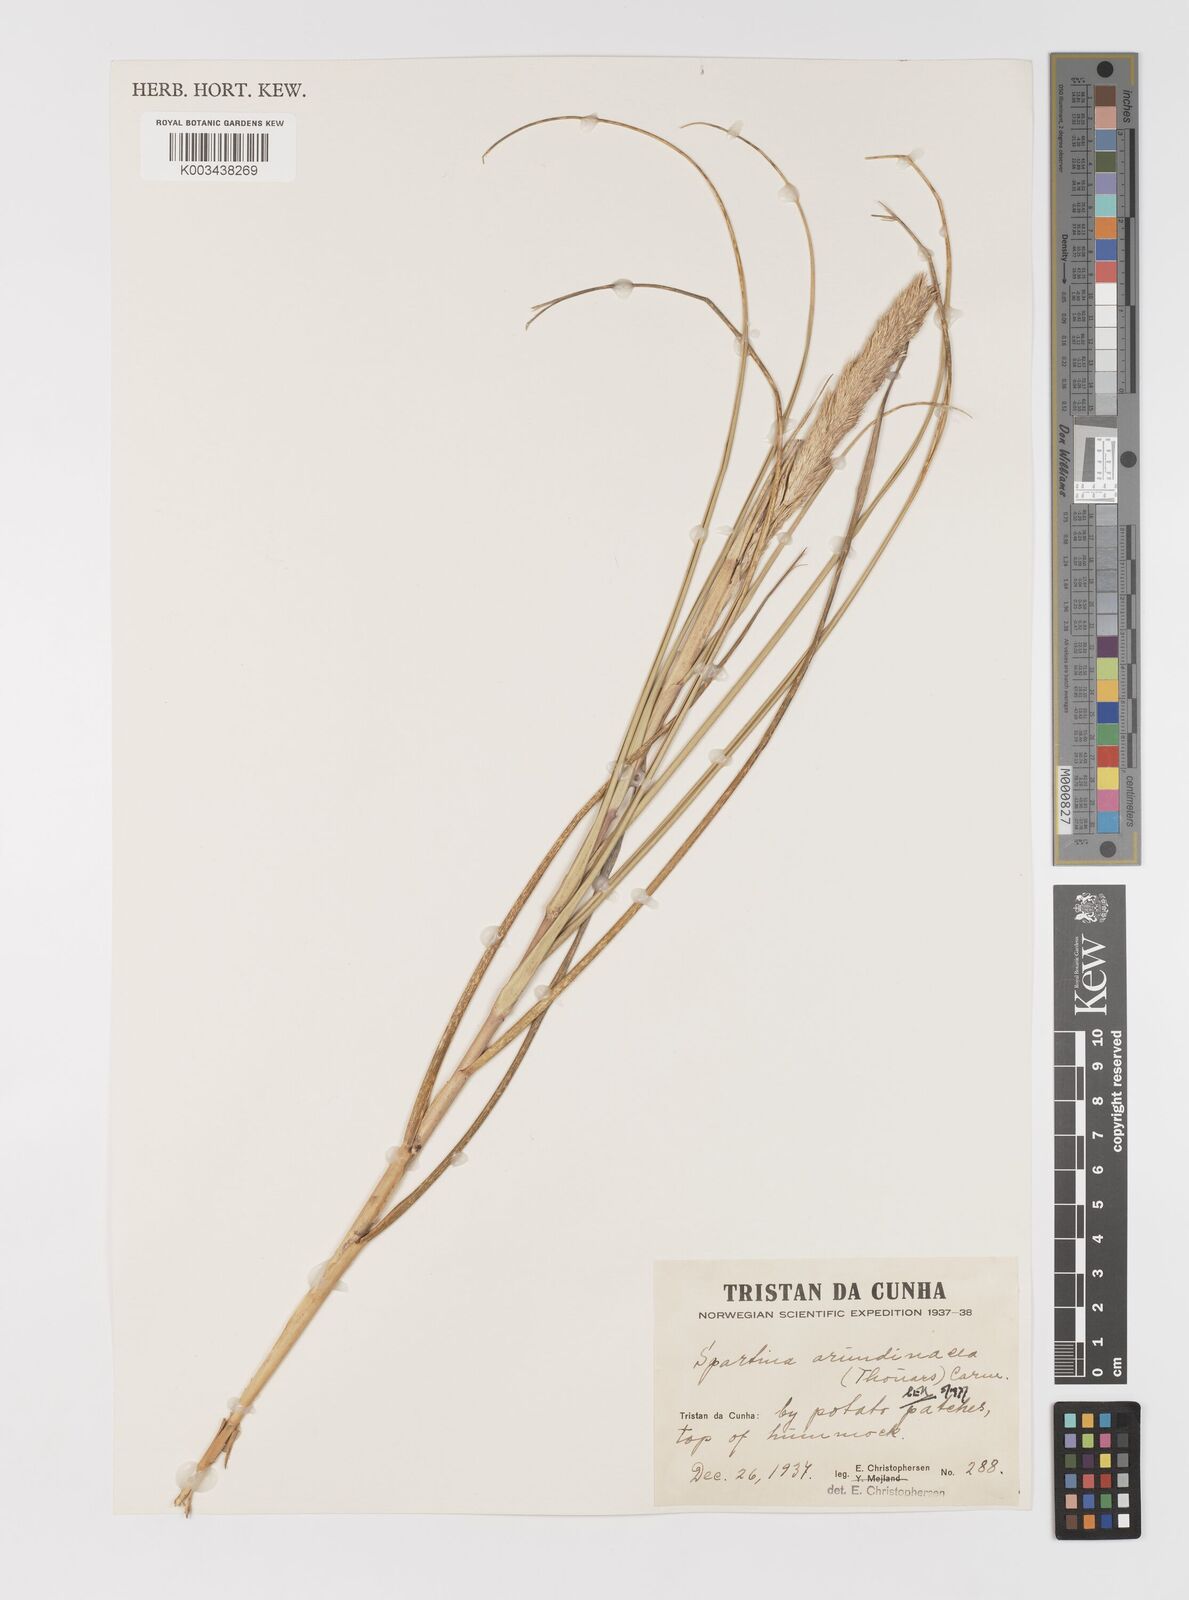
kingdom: Plantae
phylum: Tracheophyta
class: Liliopsida
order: Poales
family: Poaceae
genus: Sporobolus
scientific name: Sporobolus mobberleyanus
